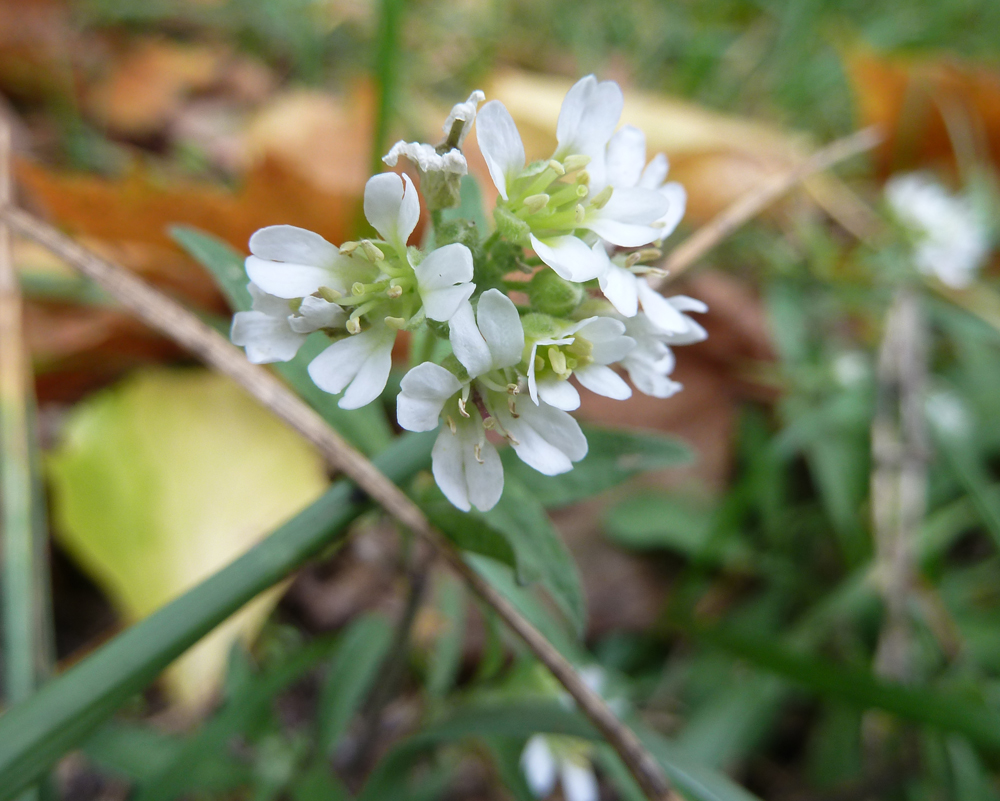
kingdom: Plantae
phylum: Tracheophyta
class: Magnoliopsida
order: Brassicales
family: Brassicaceae
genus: Berteroa
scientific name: Berteroa incana
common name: Hoary alison
